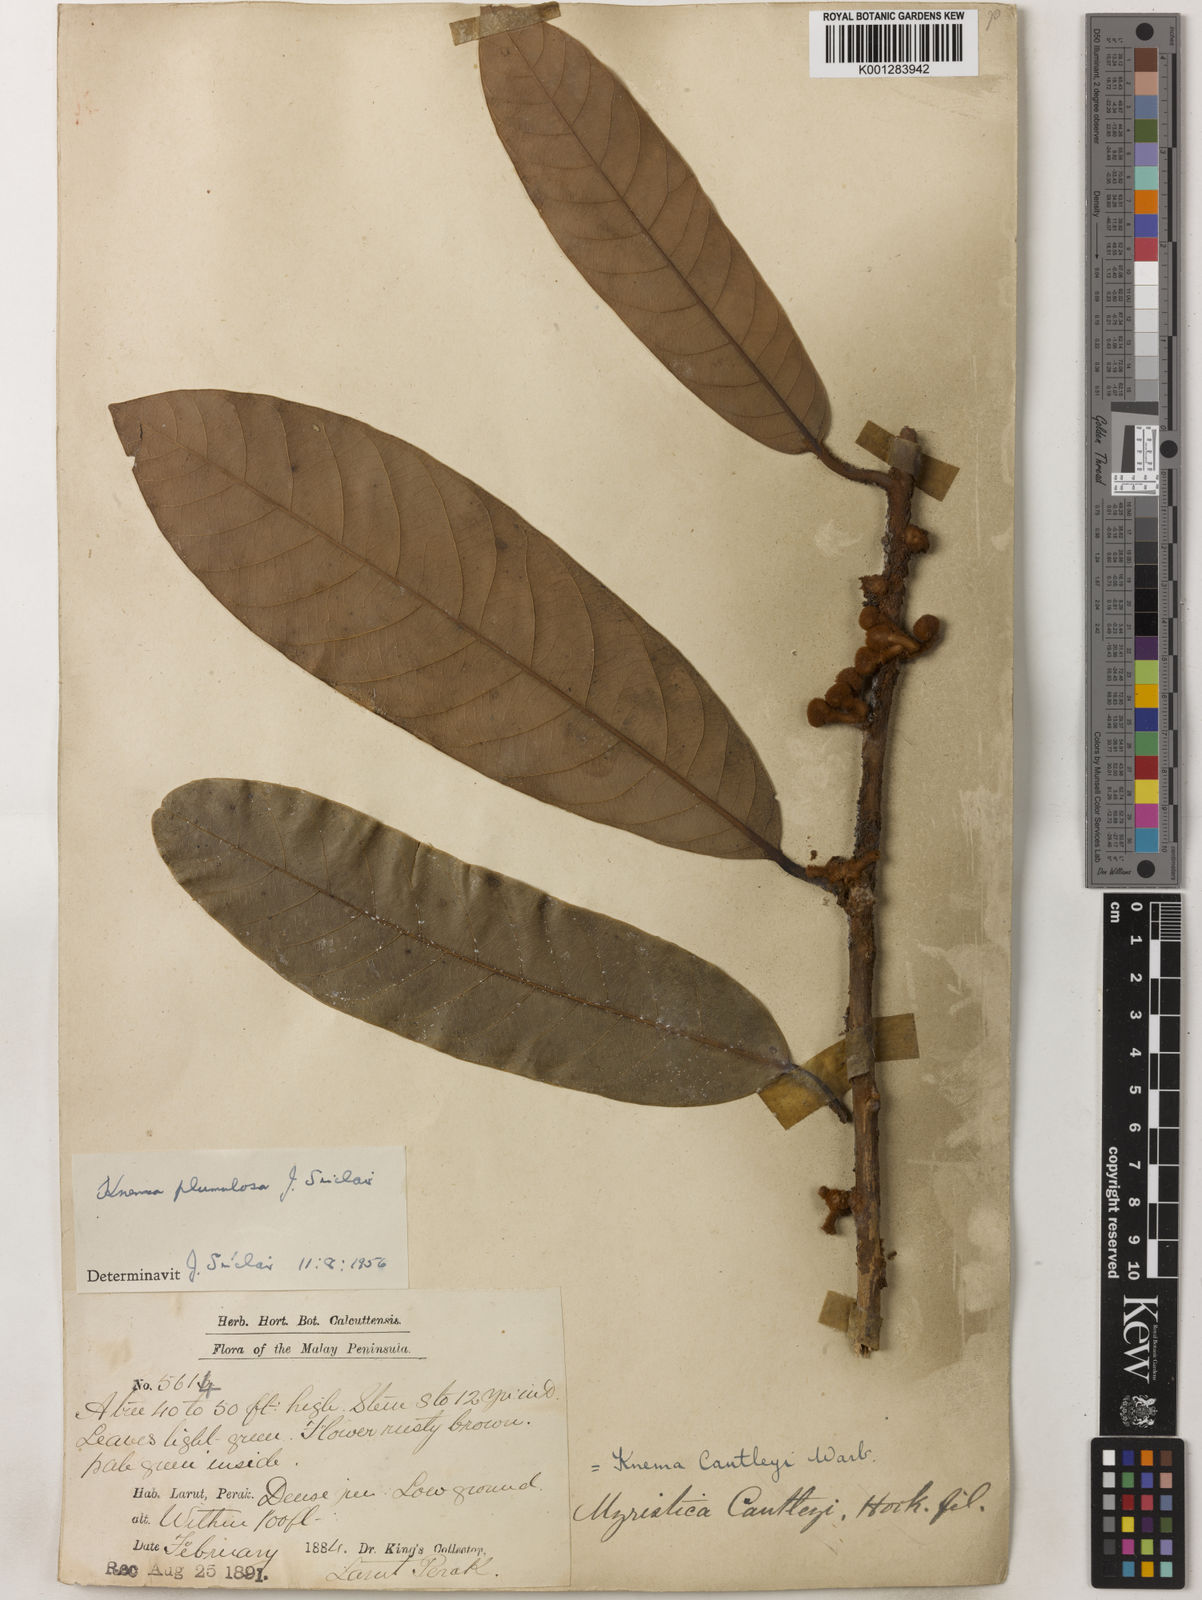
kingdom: Plantae
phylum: Tracheophyta
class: Magnoliopsida
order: Magnoliales
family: Myristicaceae
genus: Knema
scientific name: Knema plumulosa
